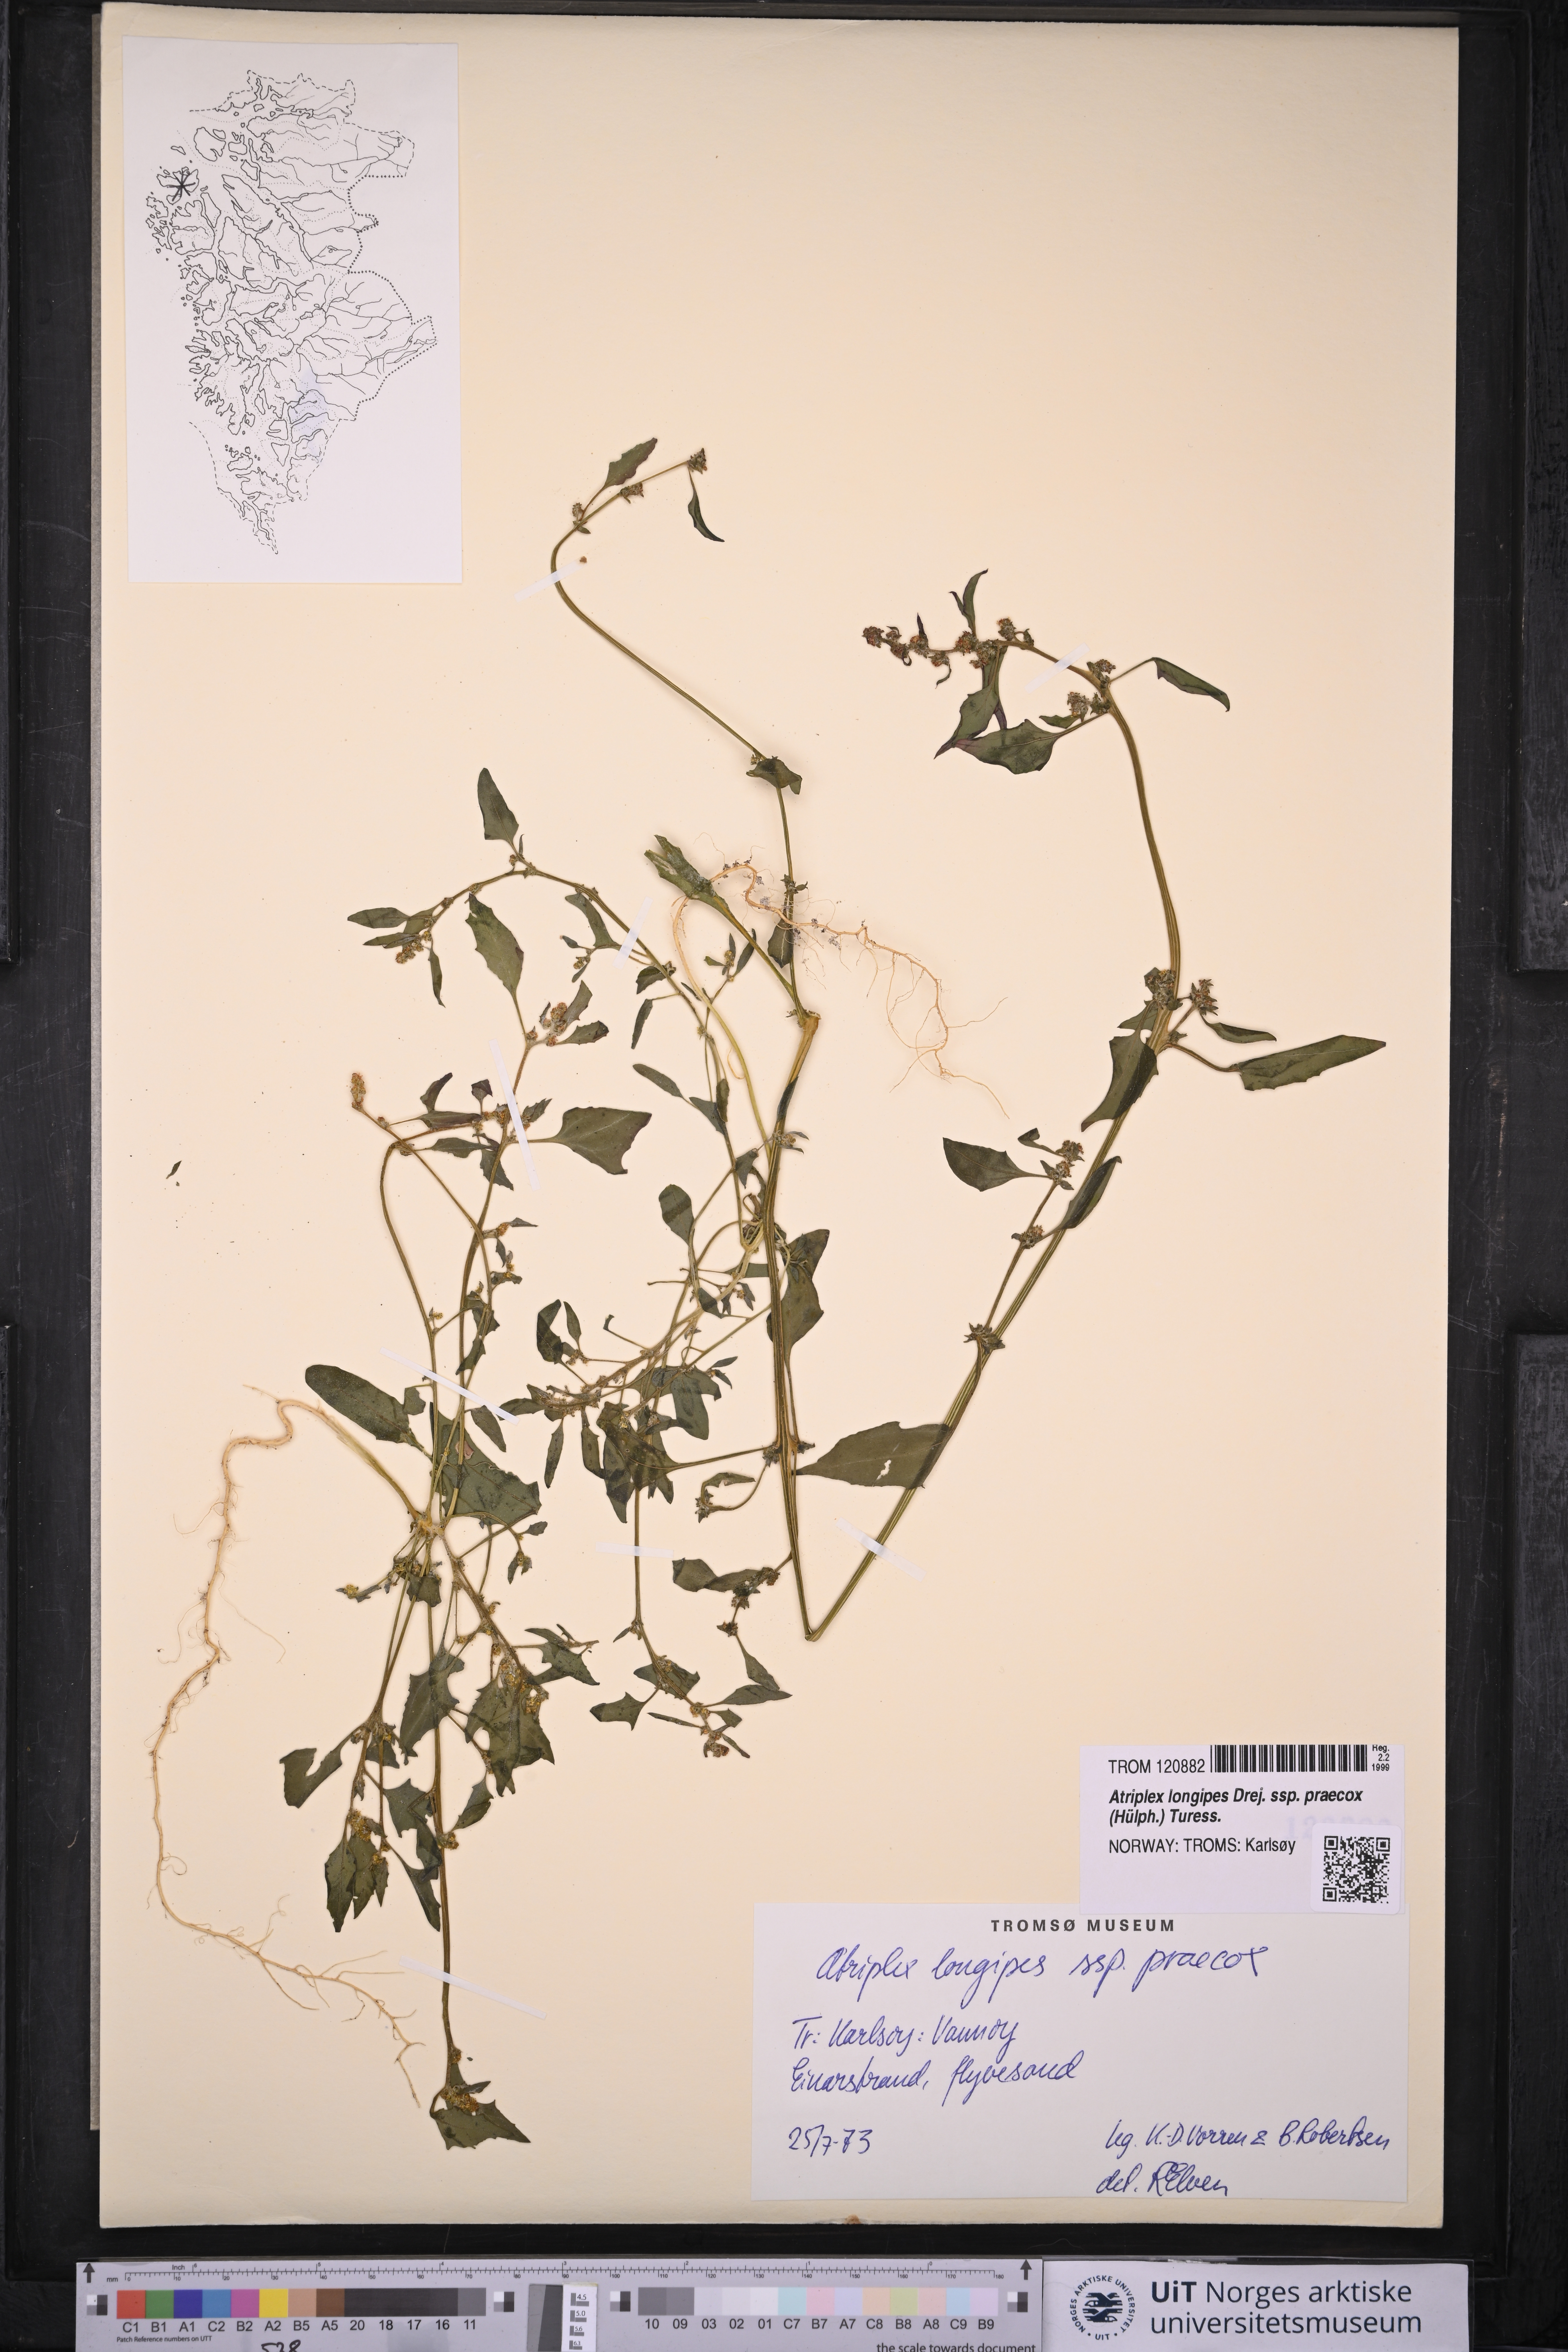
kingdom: Plantae
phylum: Tracheophyta
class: Magnoliopsida
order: Caryophyllales
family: Amaranthaceae
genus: Atriplex
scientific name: Atriplex praecox
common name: Early orache
